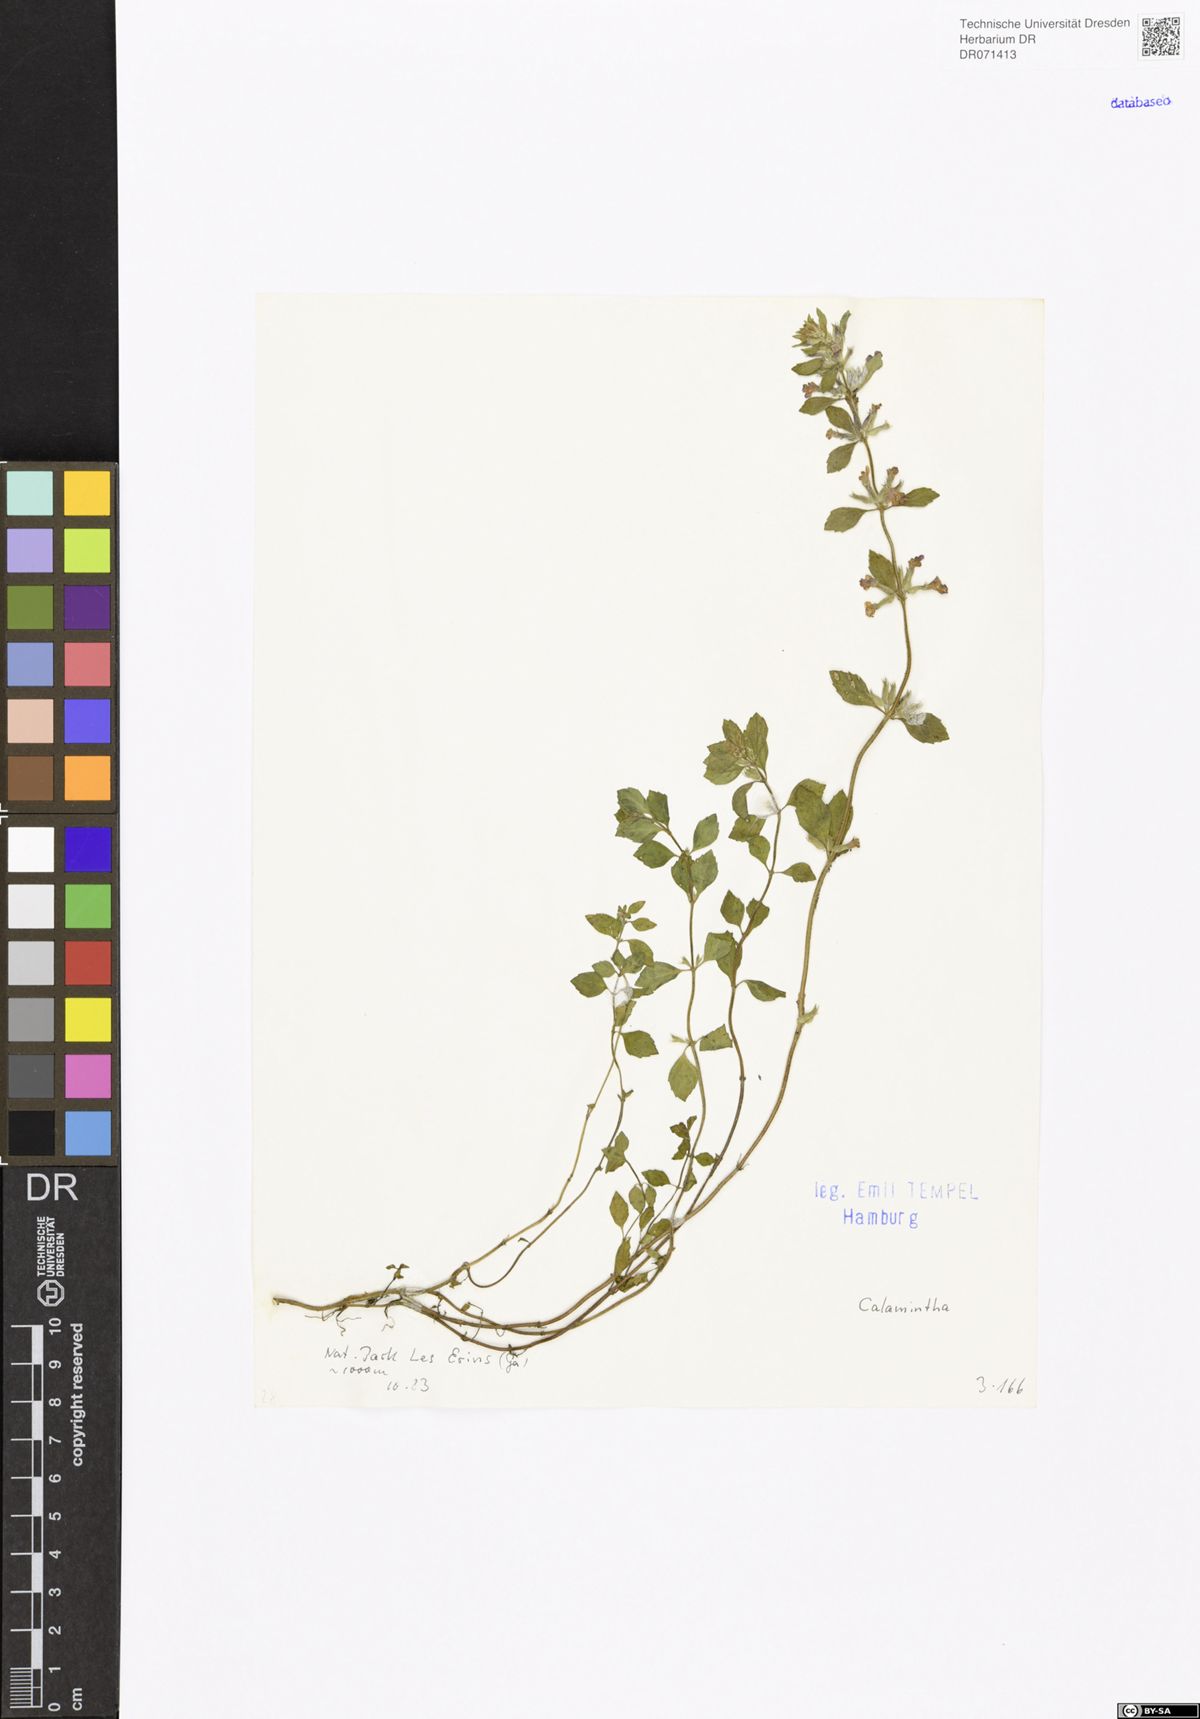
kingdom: Plantae
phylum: Tracheophyta
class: Magnoliopsida
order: Lamiales
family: Lamiaceae
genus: Calamintha
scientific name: Calamintha
